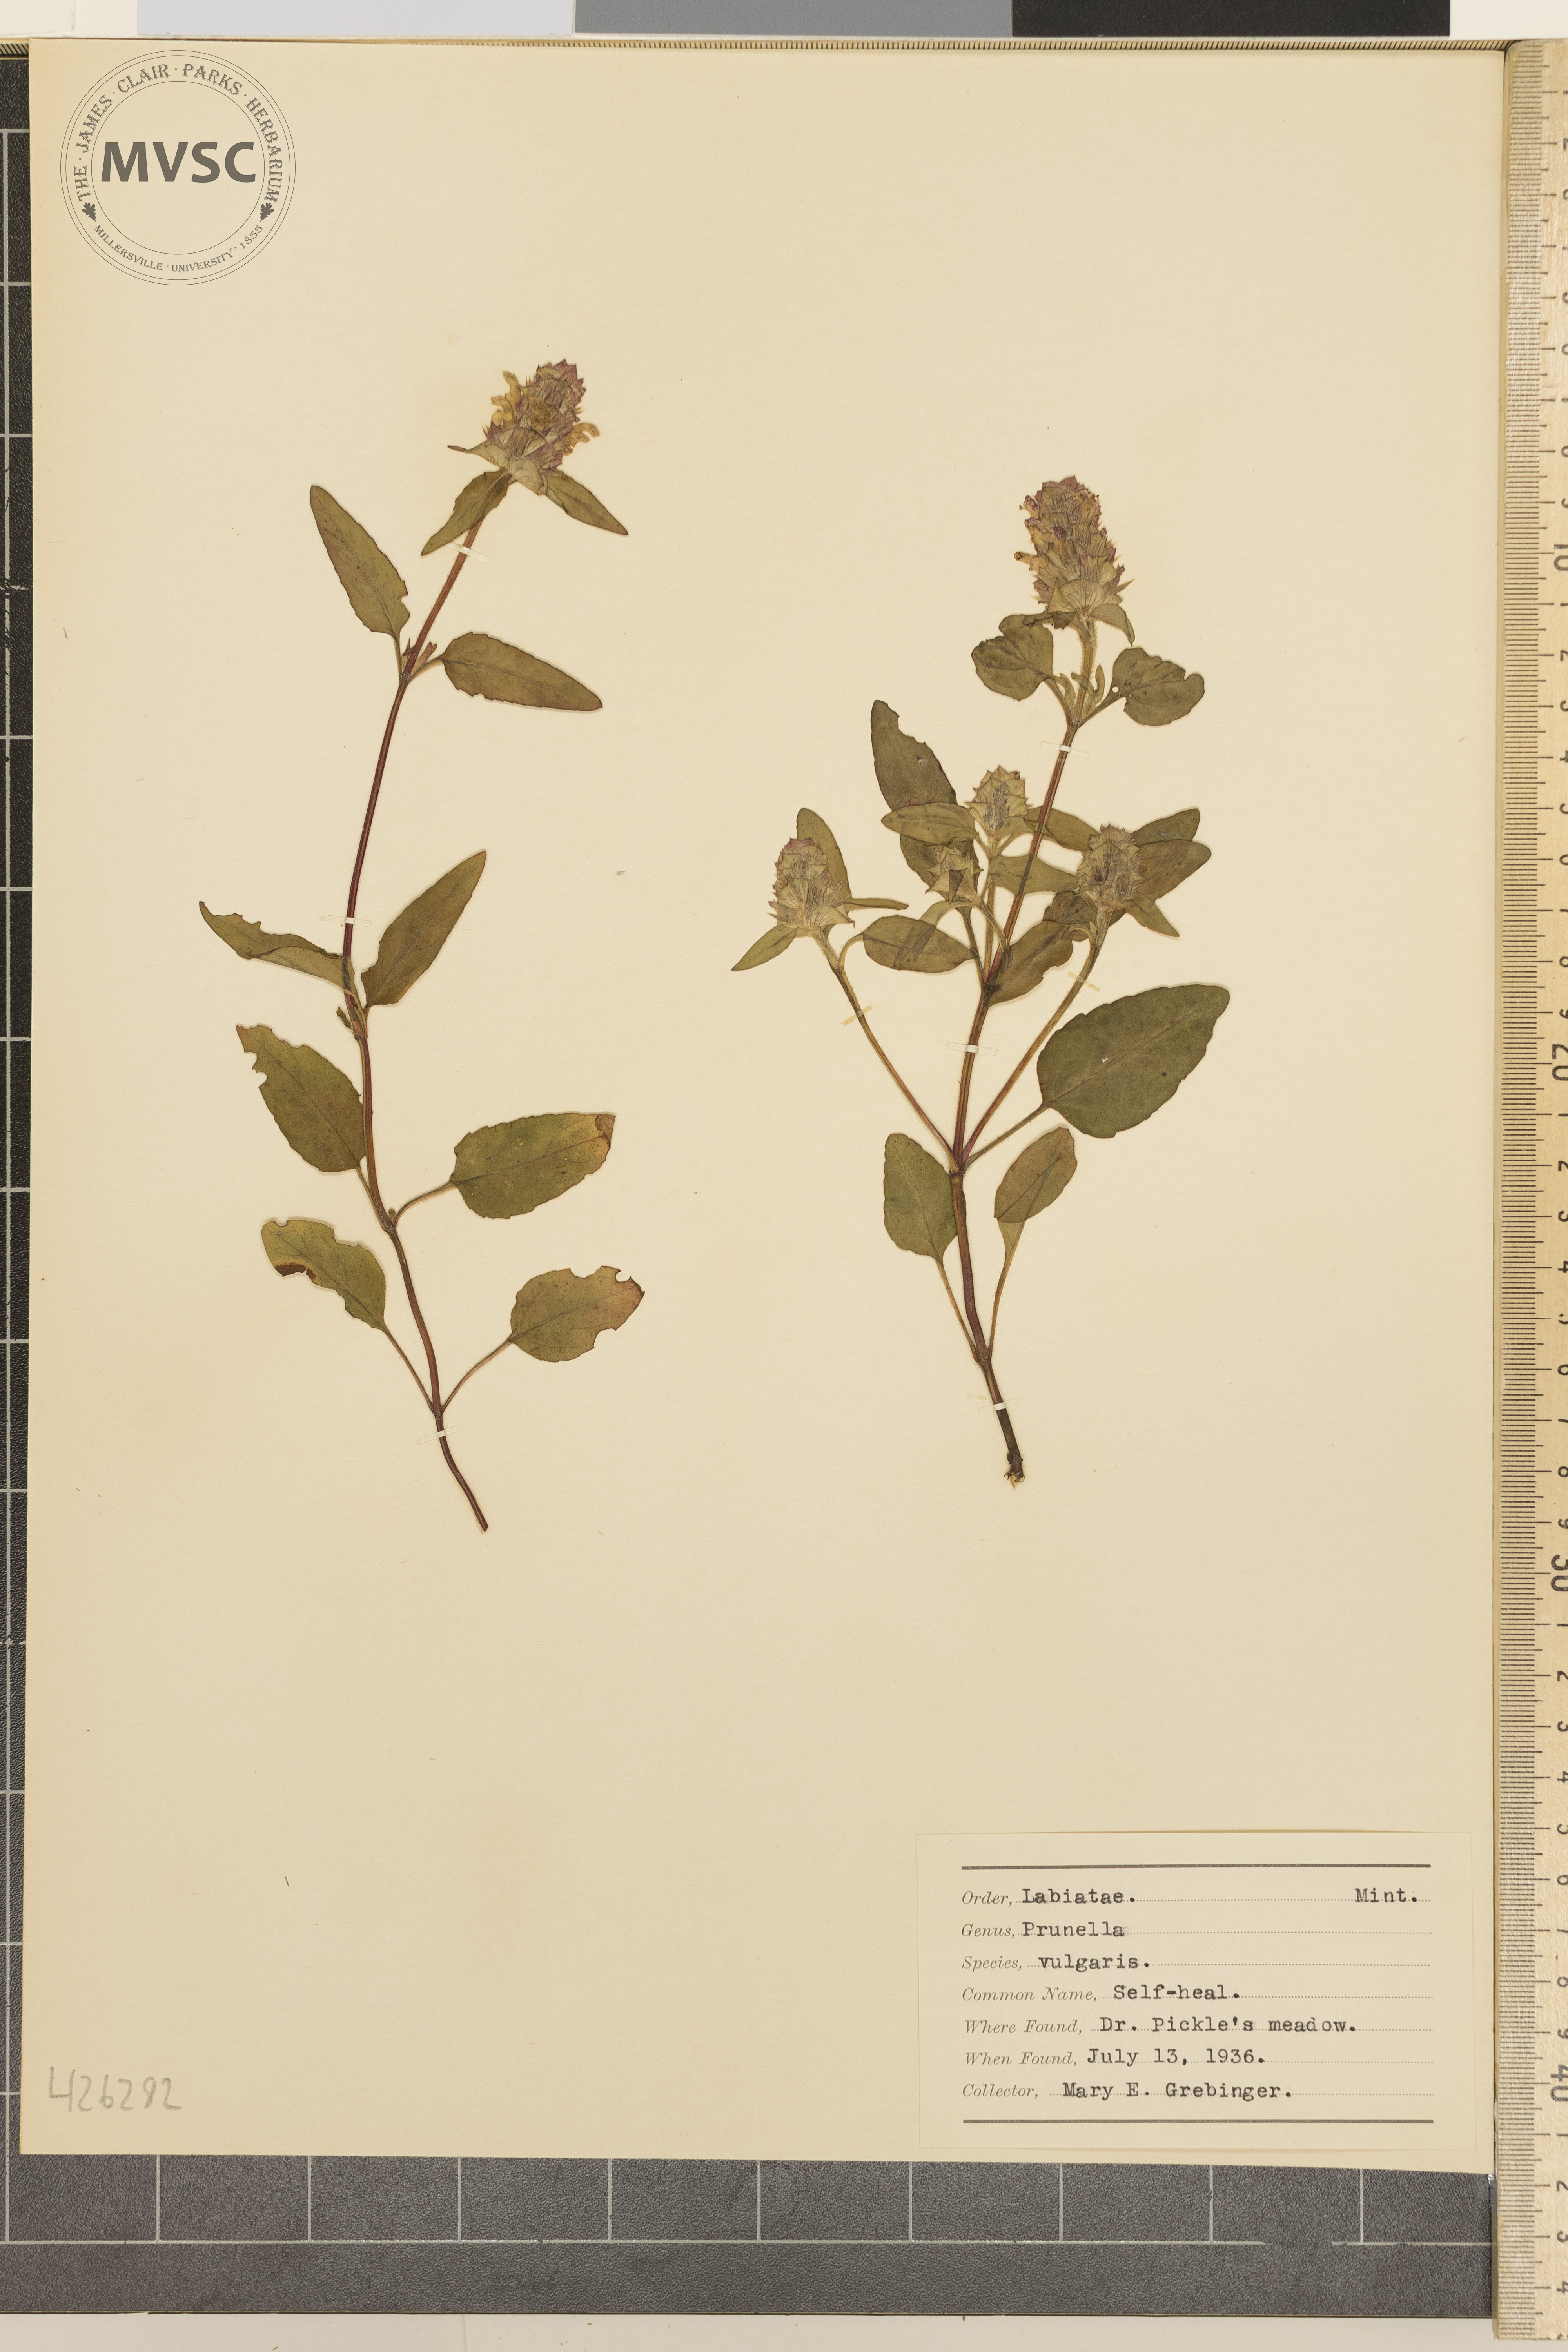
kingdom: Plantae
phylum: Tracheophyta
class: Magnoliopsida
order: Lamiales
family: Lamiaceae
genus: Prunella
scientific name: Prunella vulgaris
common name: Self-heal
